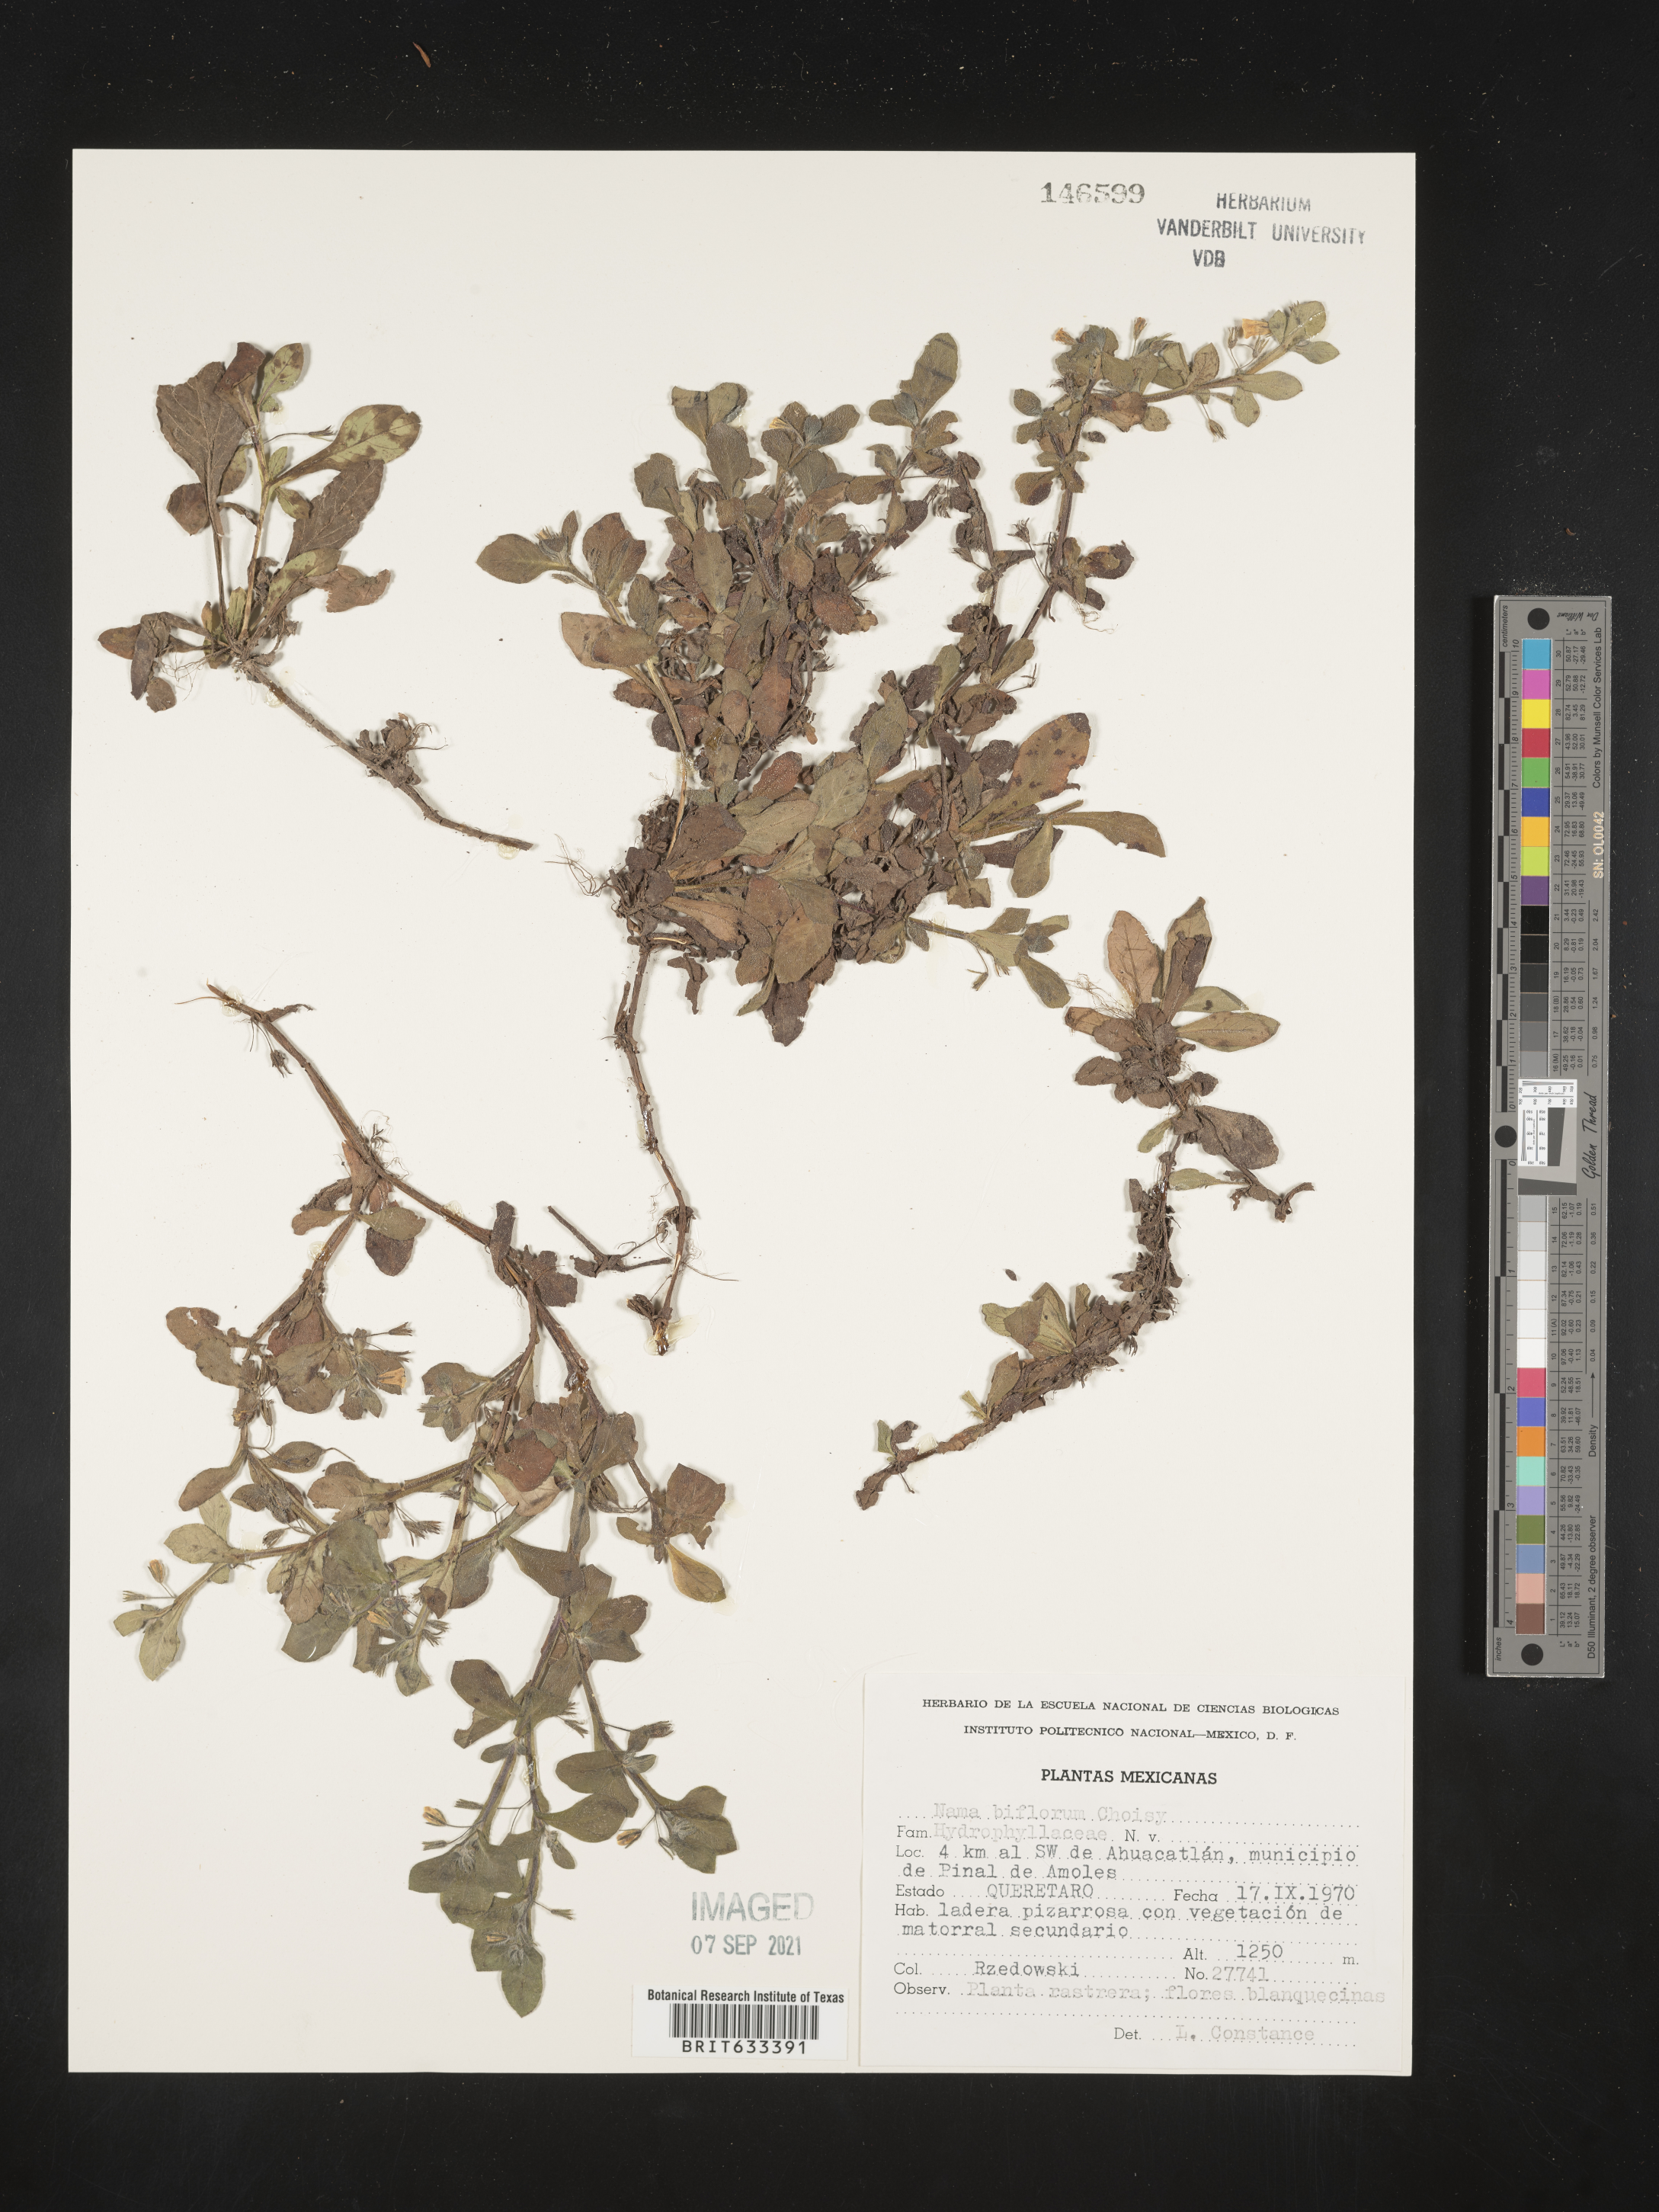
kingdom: Plantae
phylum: Tracheophyta
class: Magnoliopsida
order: Boraginales
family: Namaceae
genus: Nama
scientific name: Nama
